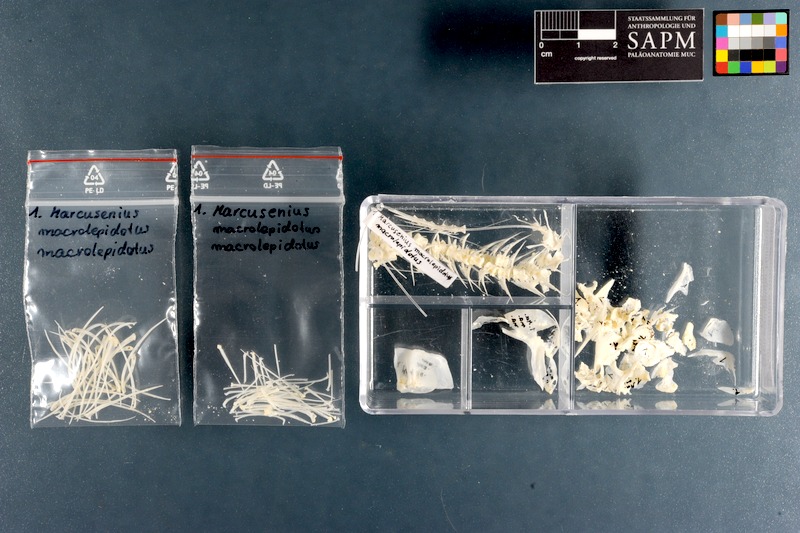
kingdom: Animalia
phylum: Chordata
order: Osteoglossiformes
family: Mormyridae
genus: Marcusenius
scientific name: Marcusenius macrolepidotus
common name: Bulldog
